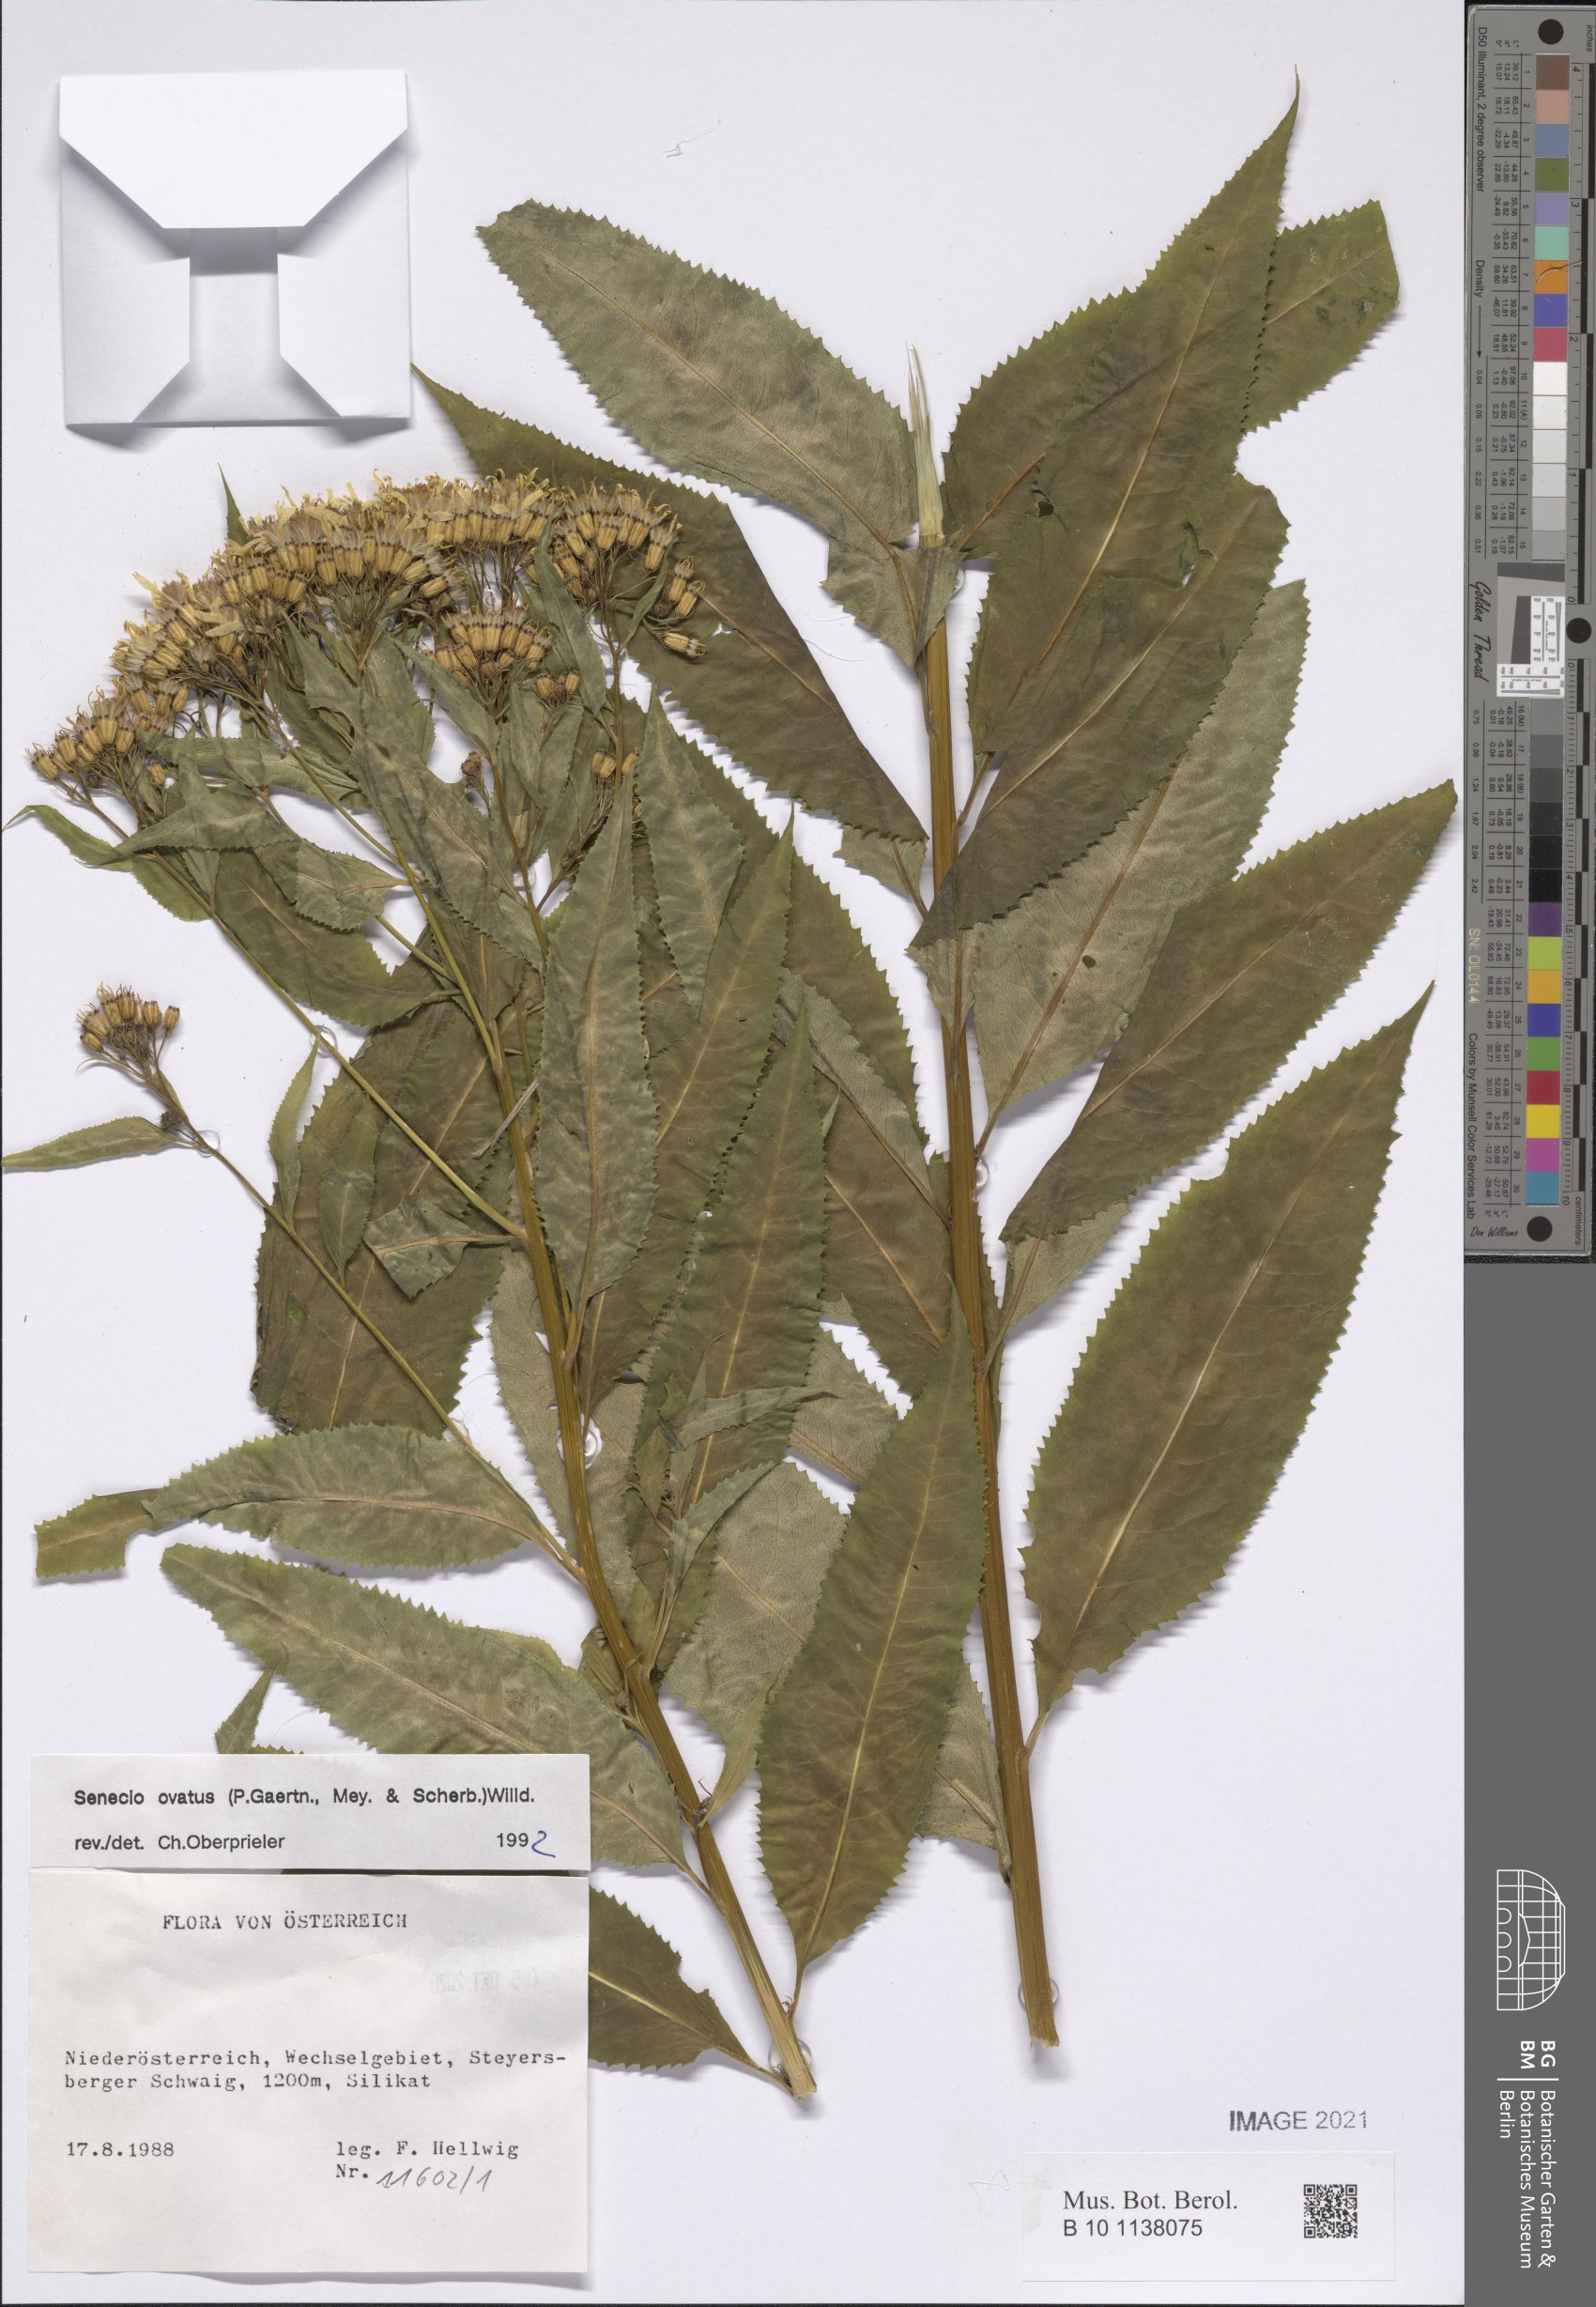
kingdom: Plantae
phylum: Tracheophyta
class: Magnoliopsida
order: Asterales
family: Asteraceae
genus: Senecio
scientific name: Senecio ovatus
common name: Wood ragwort
